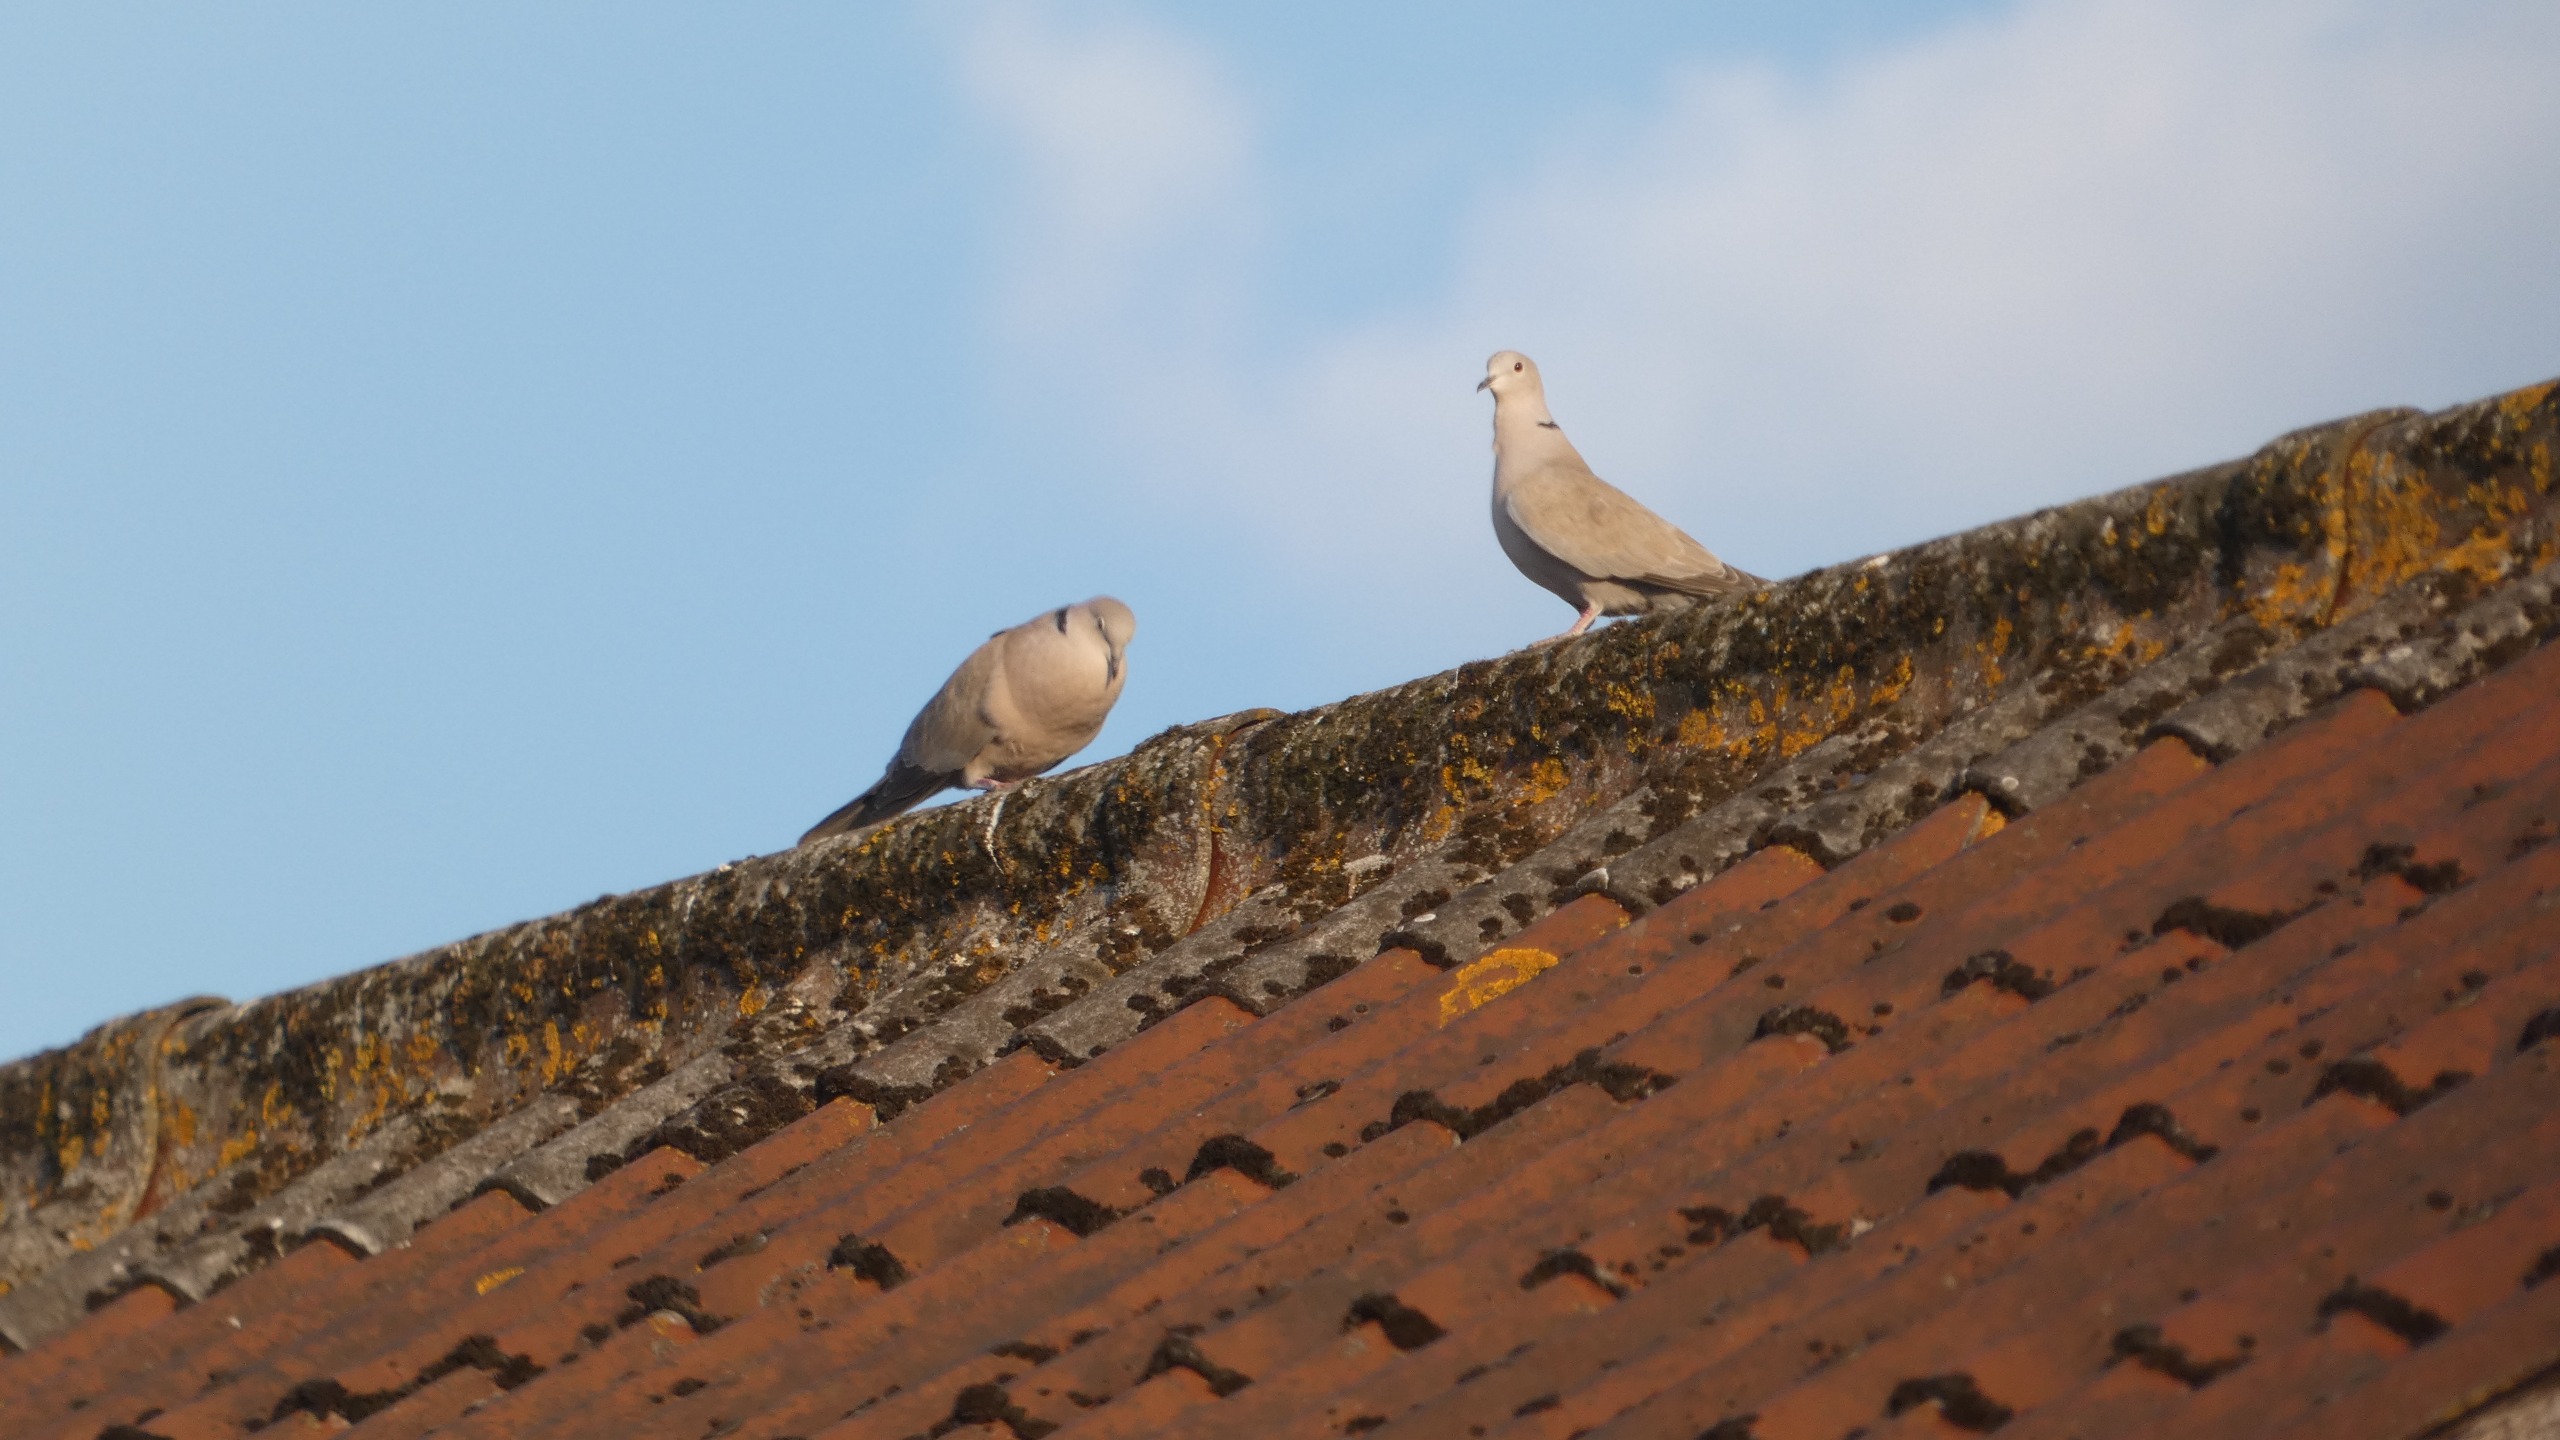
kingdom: Animalia
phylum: Chordata
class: Aves
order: Columbiformes
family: Columbidae
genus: Streptopelia
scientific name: Streptopelia decaocto
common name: Tyrkerdue
